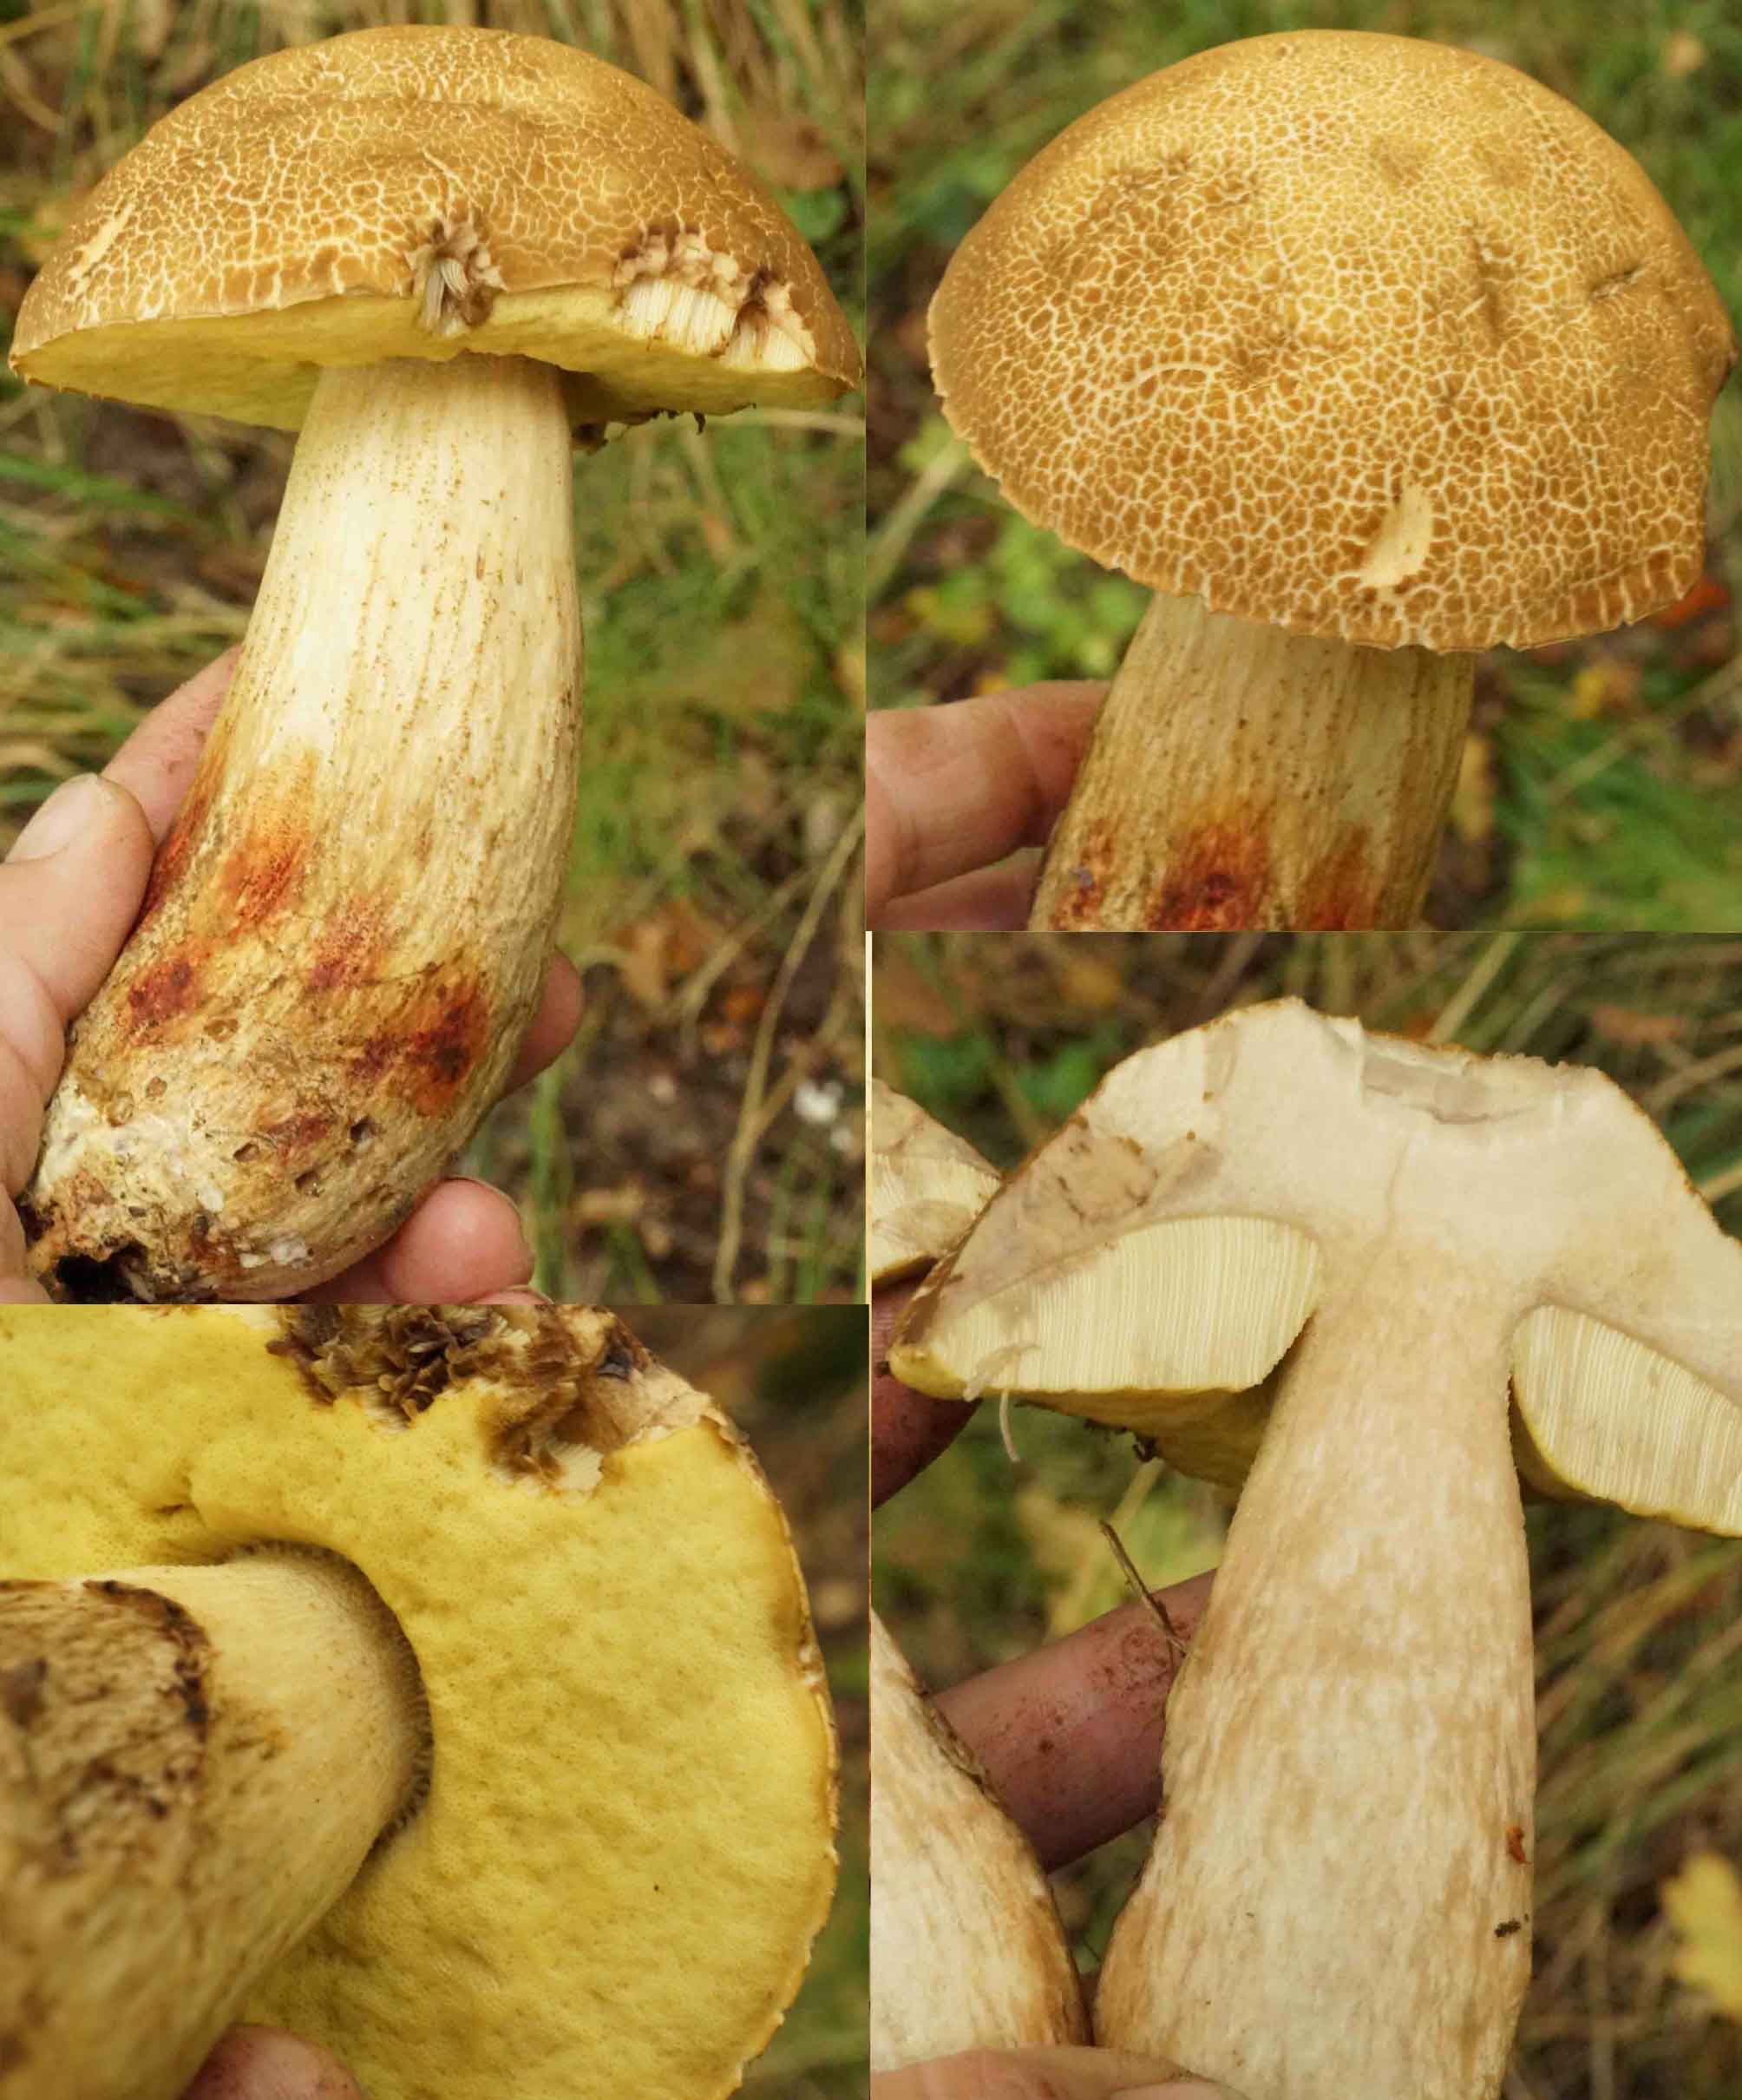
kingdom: Fungi
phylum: Basidiomycota
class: Agaricomycetes
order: Boletales
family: Boletaceae
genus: Leccinellum
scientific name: Leccinellum crocipodium
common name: gul skælrørhat
